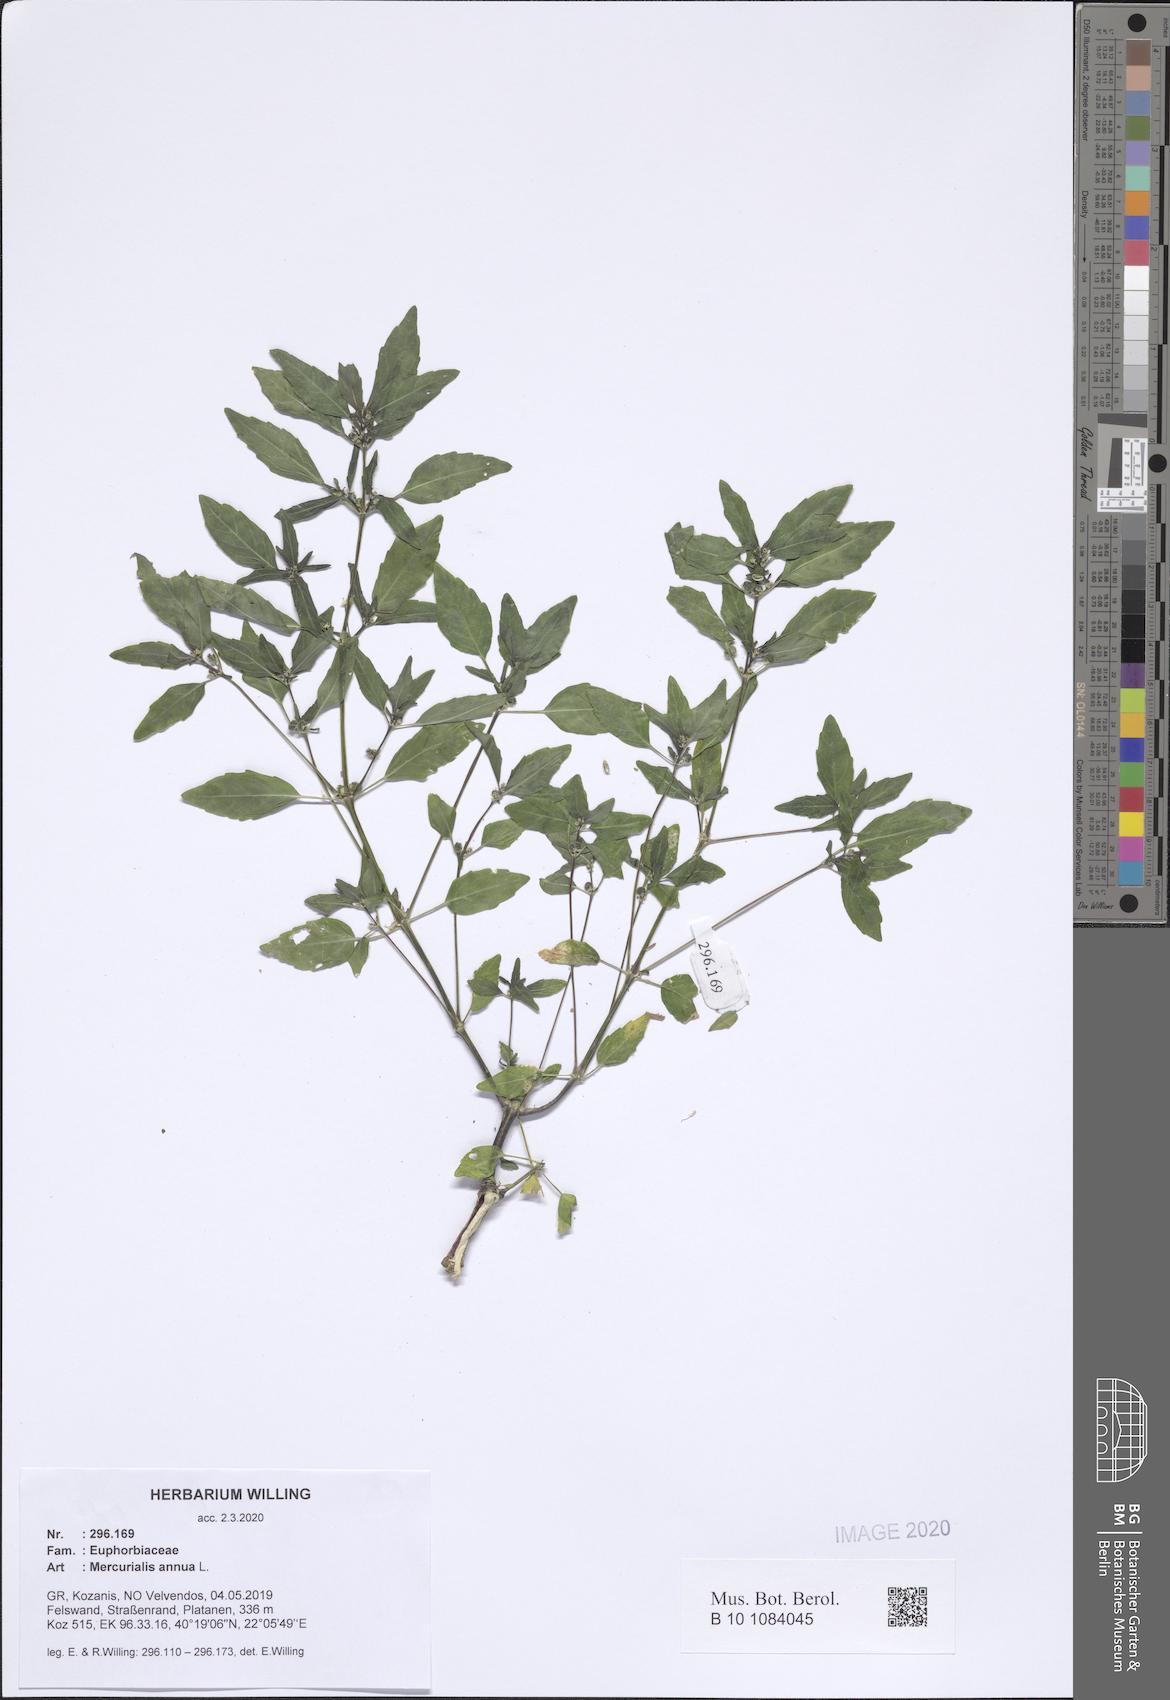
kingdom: Plantae
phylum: Tracheophyta
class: Magnoliopsida
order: Malpighiales
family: Euphorbiaceae
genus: Mercurialis
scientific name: Mercurialis annua
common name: Annual mercury
